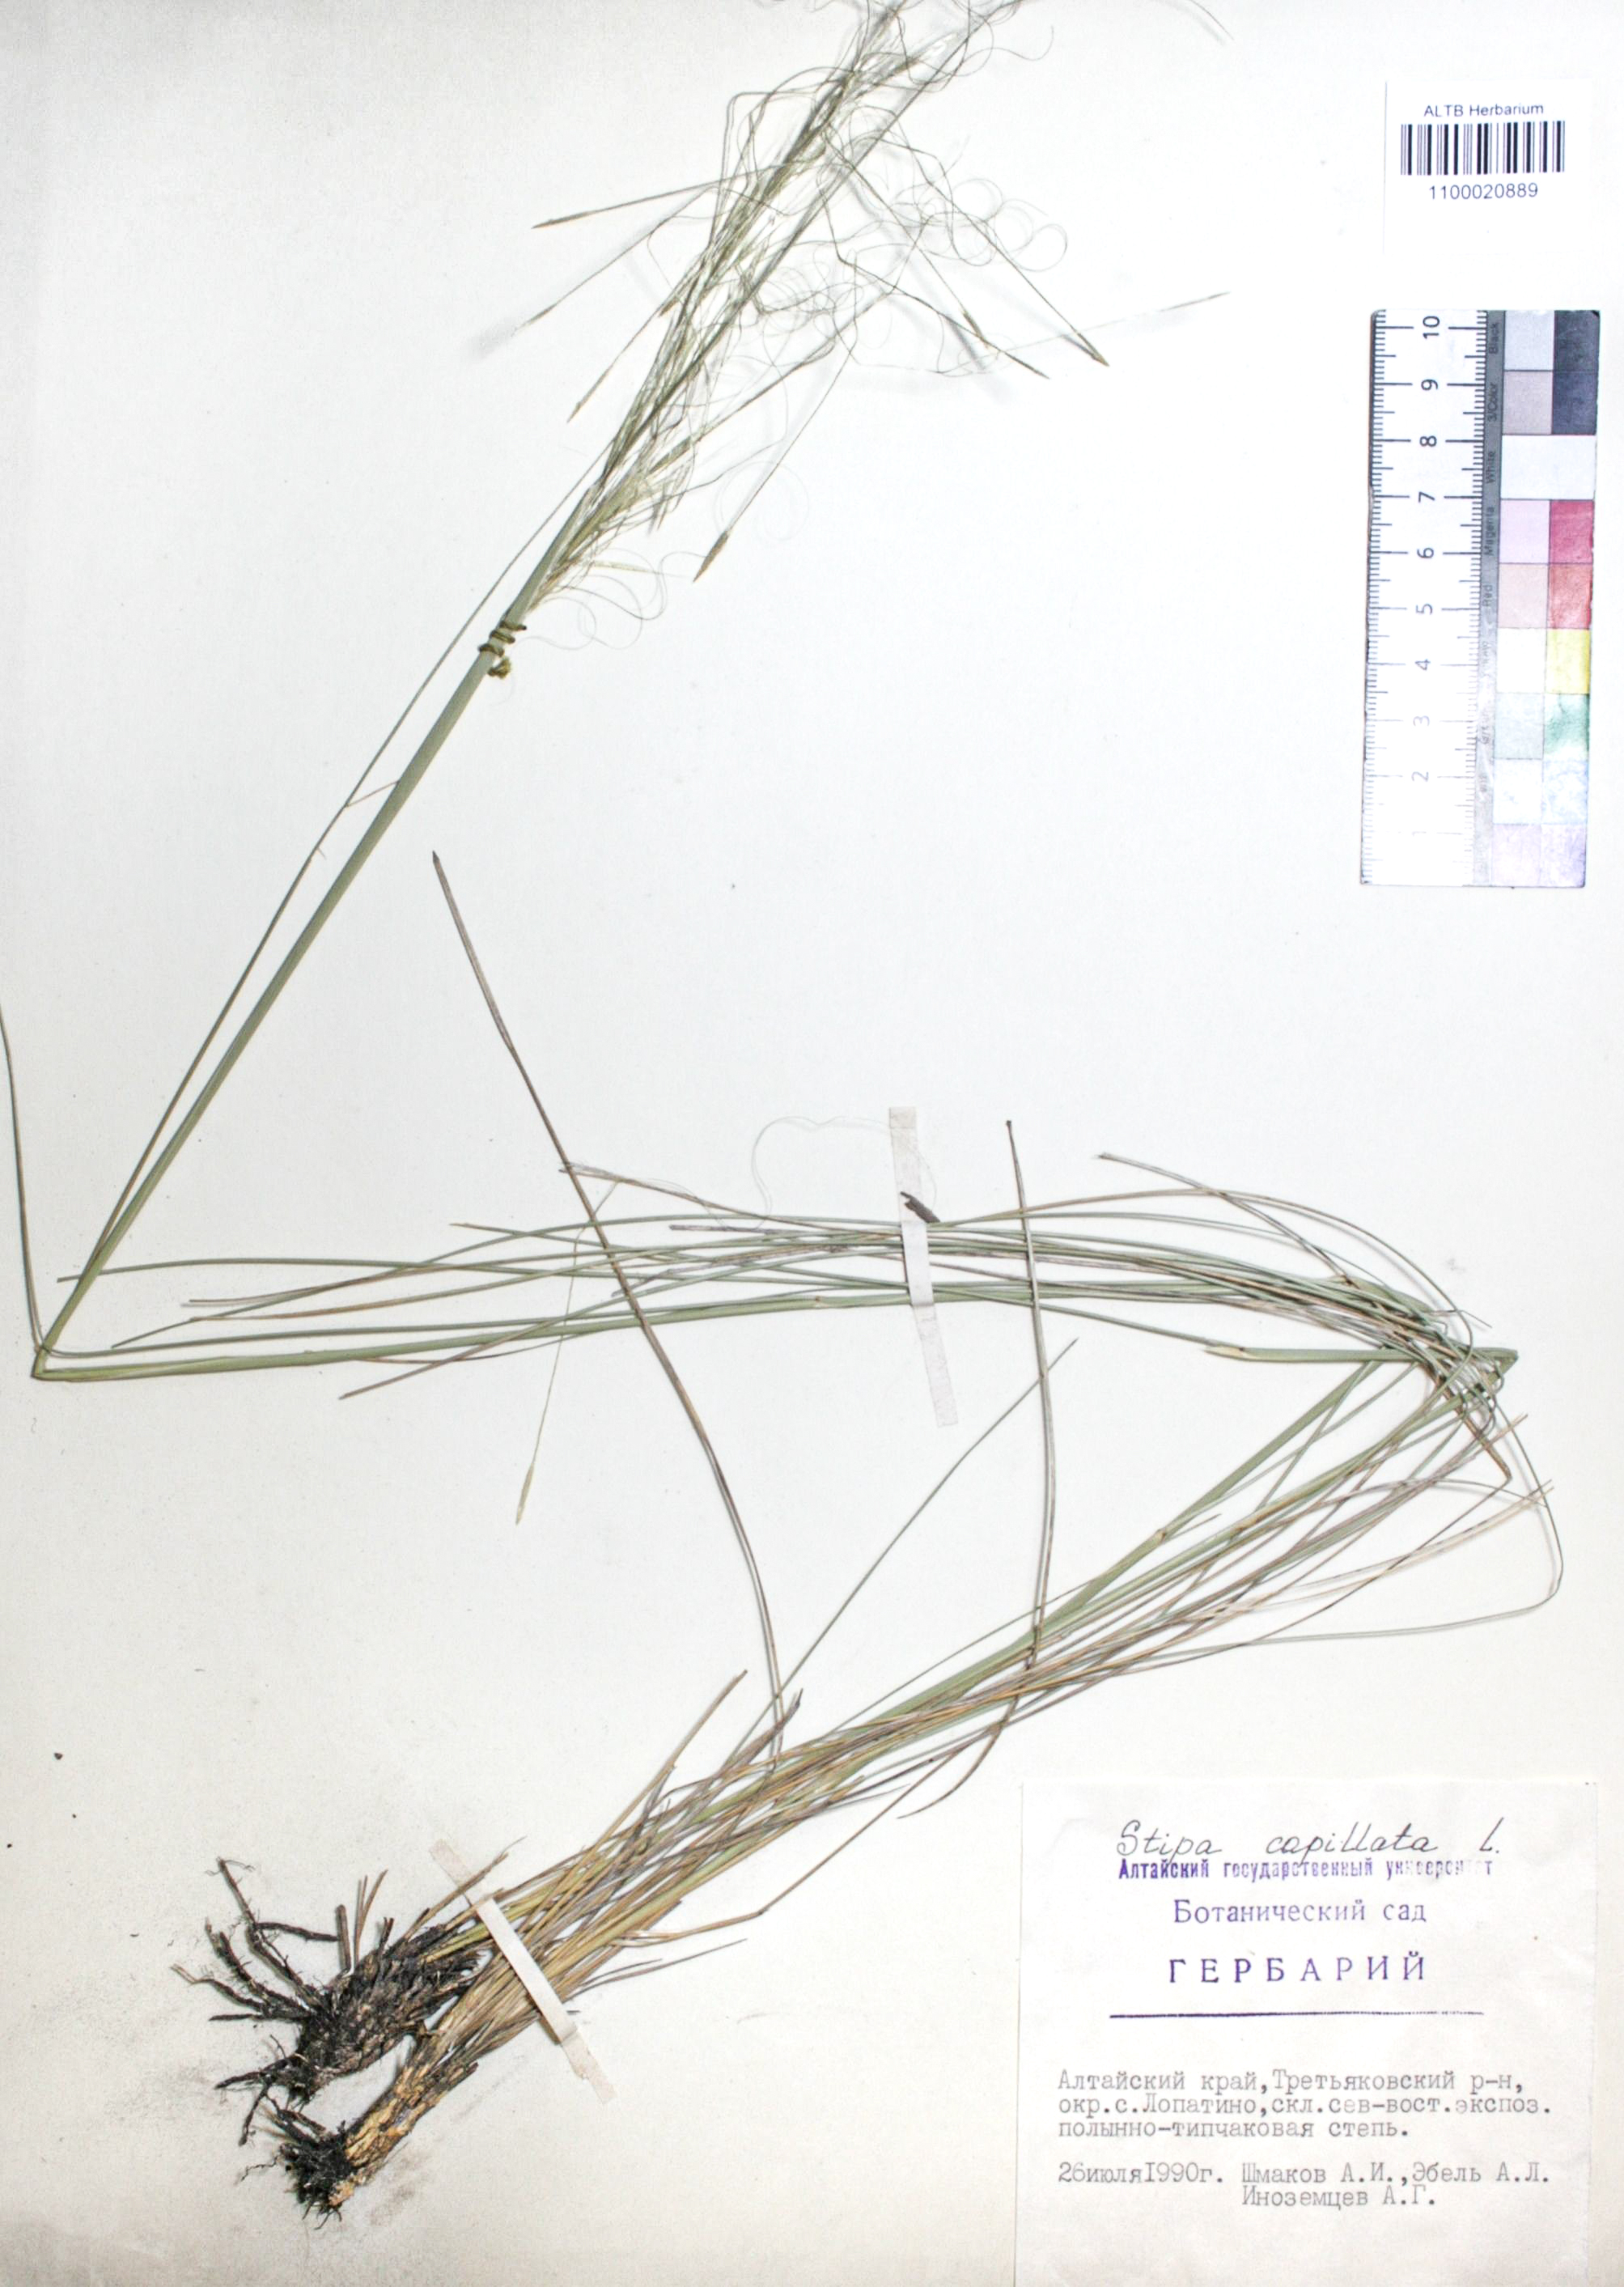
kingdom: Plantae
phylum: Tracheophyta
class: Liliopsida
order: Poales
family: Poaceae
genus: Stipa
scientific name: Stipa capillata
